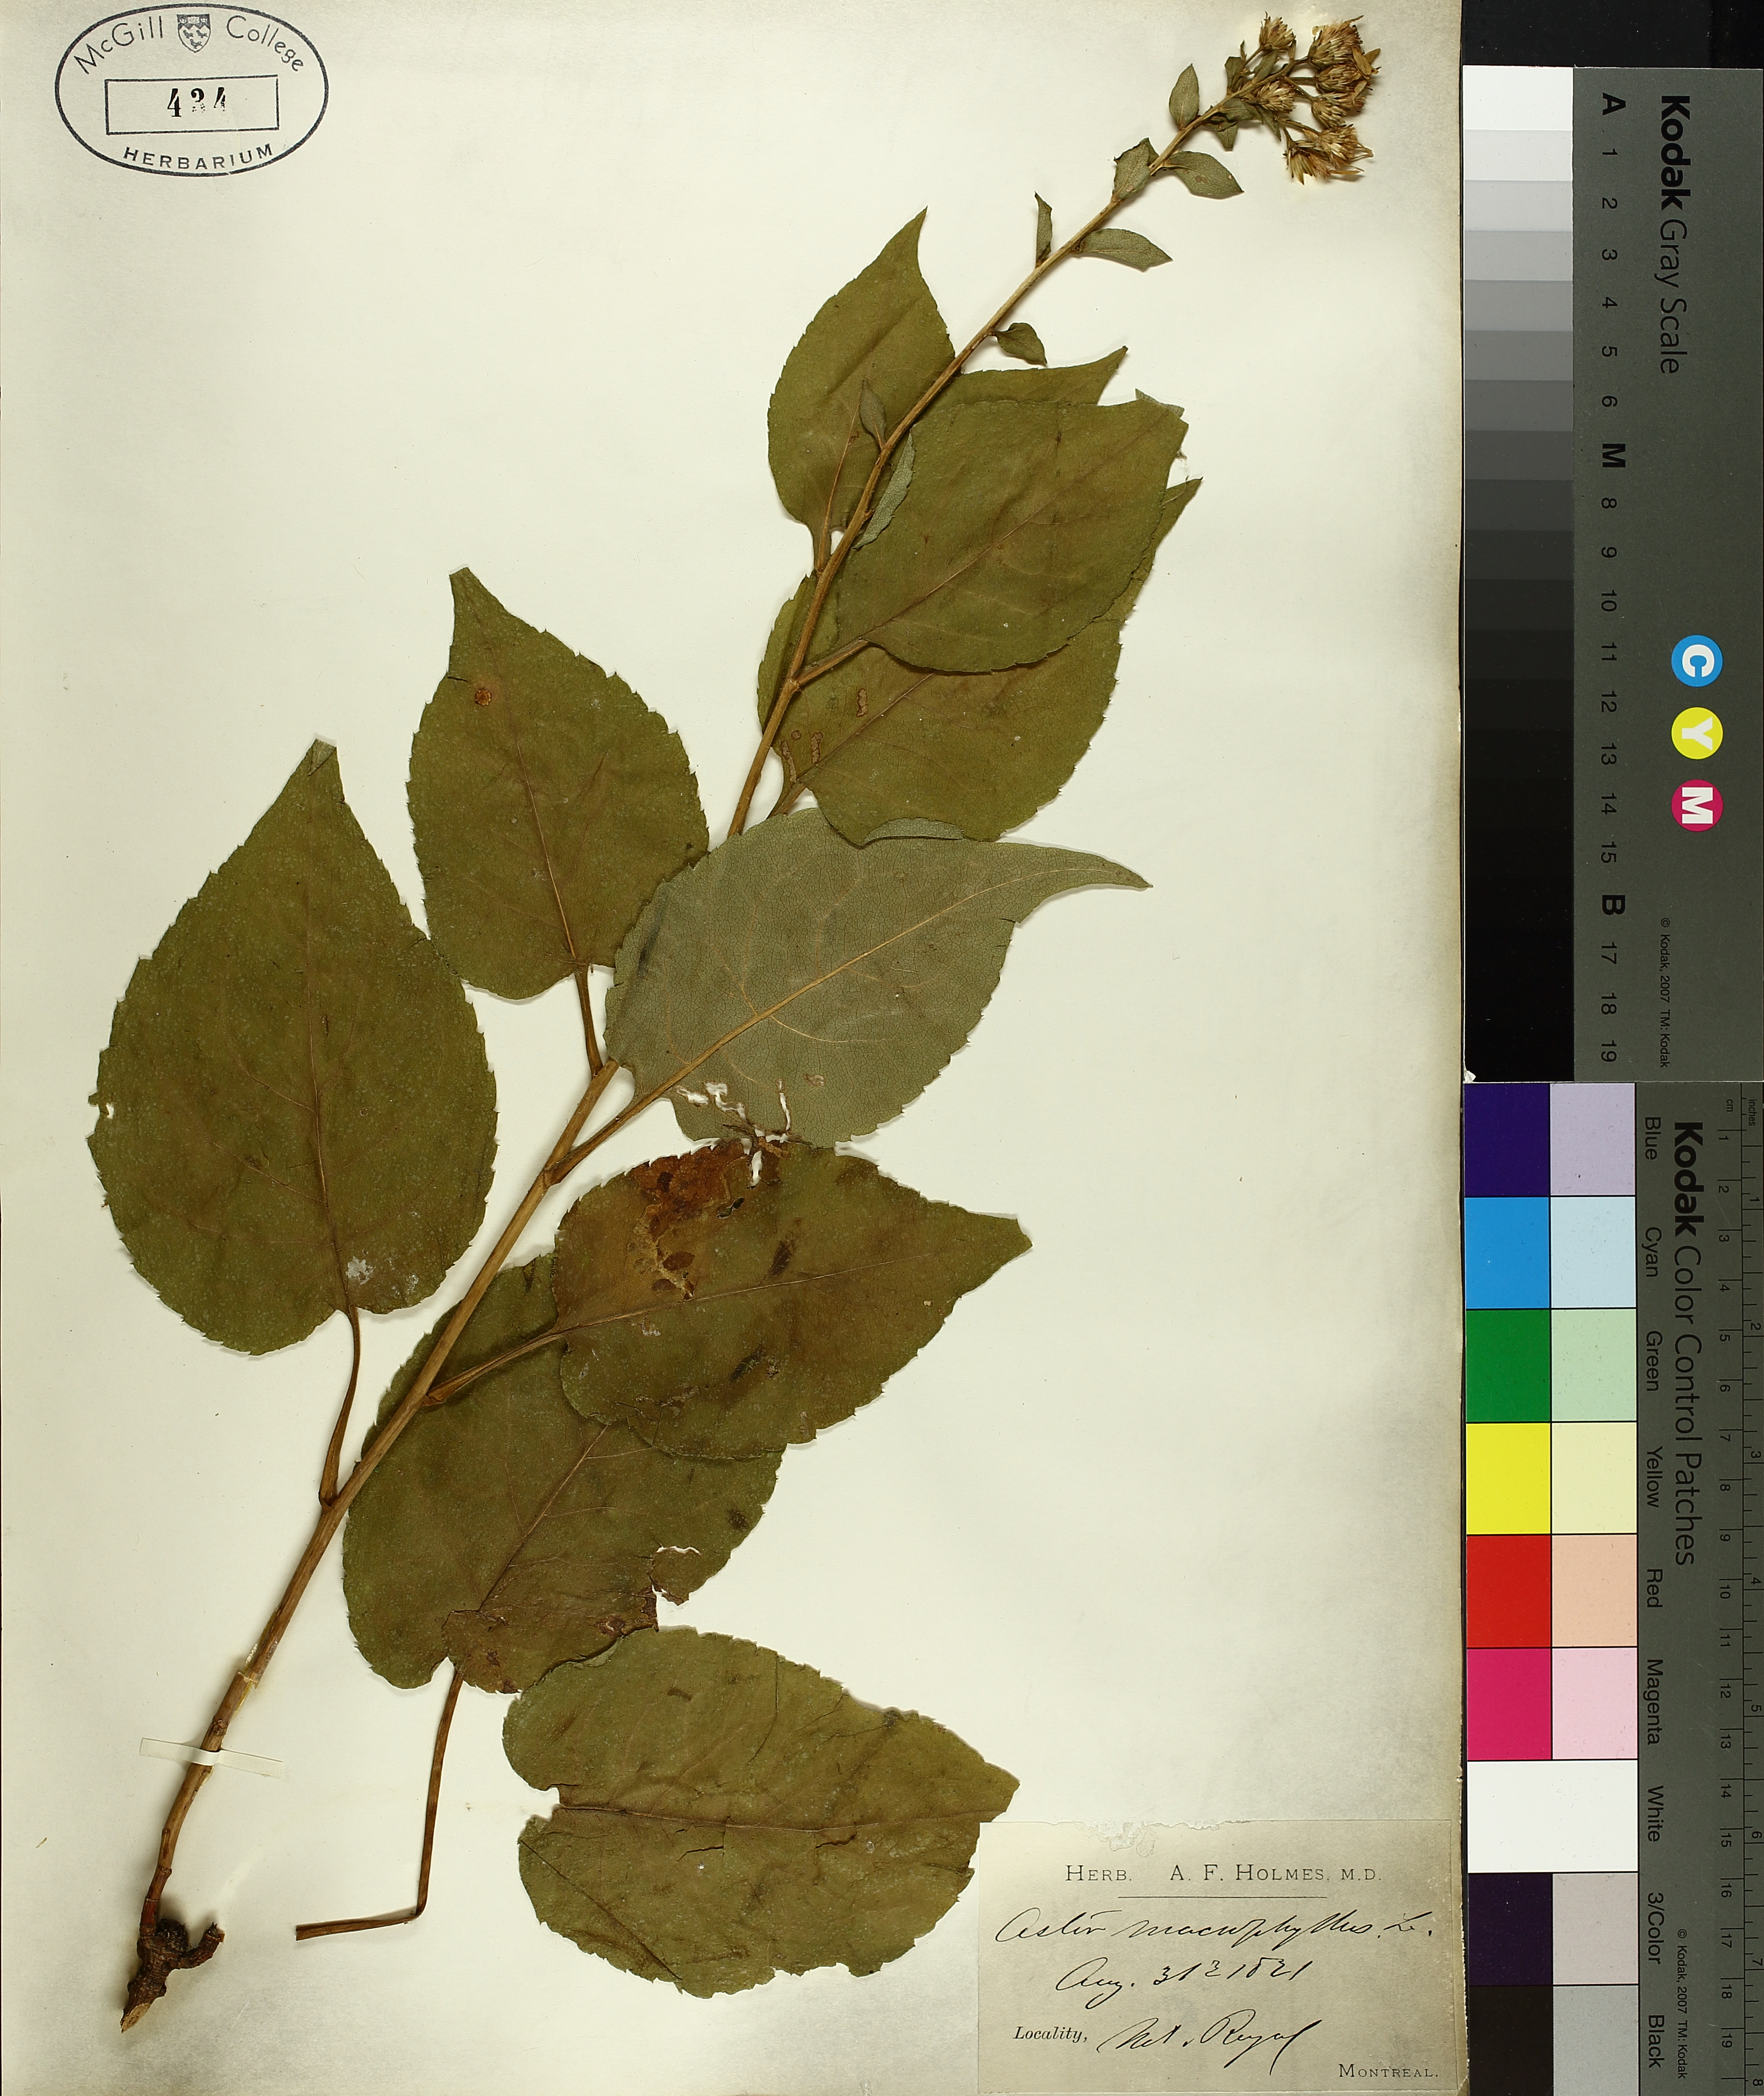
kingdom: Plantae
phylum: Tracheophyta
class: Magnoliopsida
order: Asterales
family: Asteraceae
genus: Eurybia
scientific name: Eurybia macrophylla
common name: Big-leaved aster
